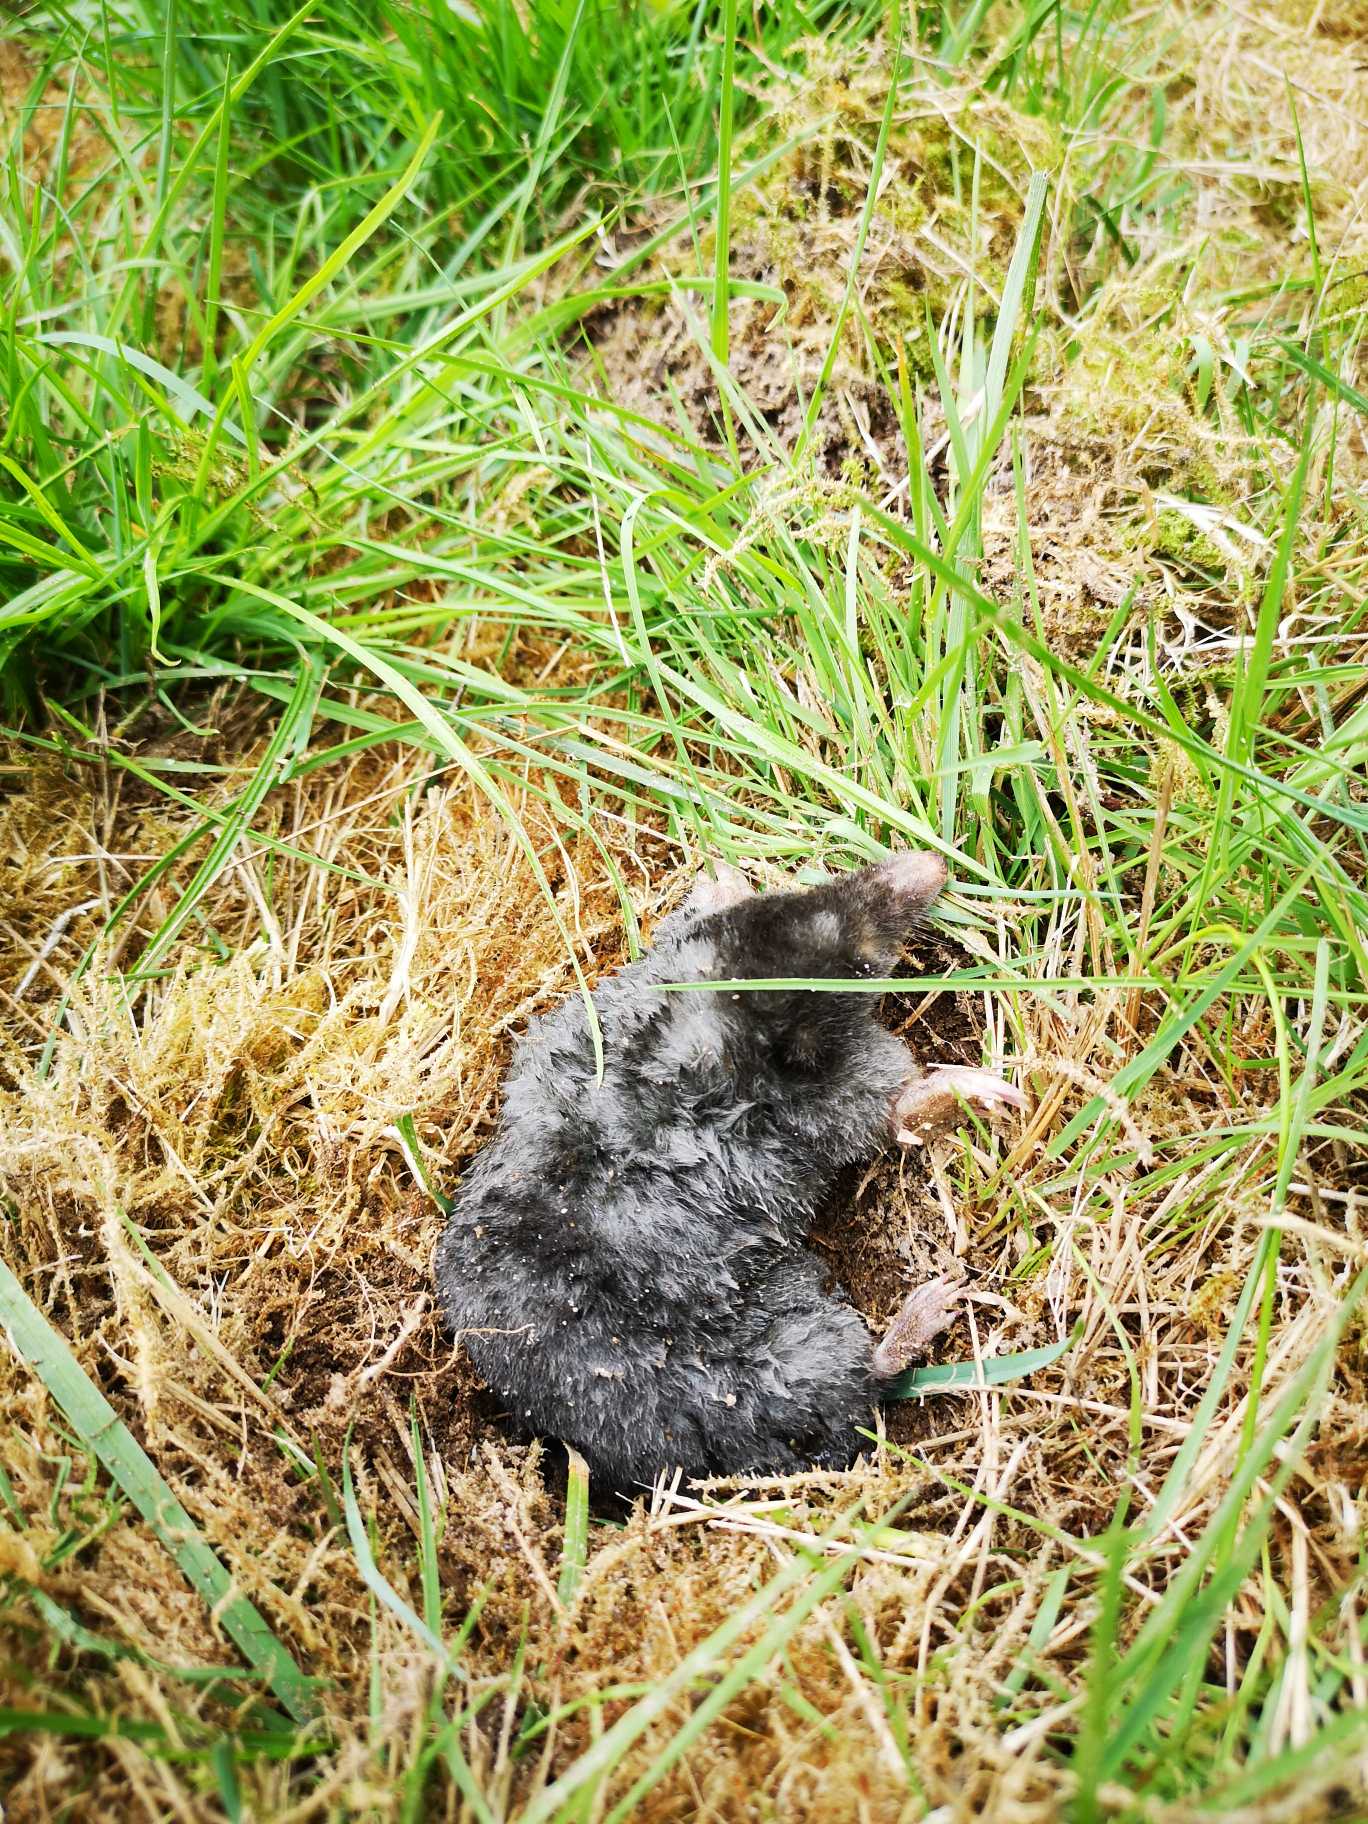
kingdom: Animalia
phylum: Chordata
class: Mammalia
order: Soricomorpha
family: Talpidae
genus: Talpa
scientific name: Talpa europaea
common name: Muldvarp
